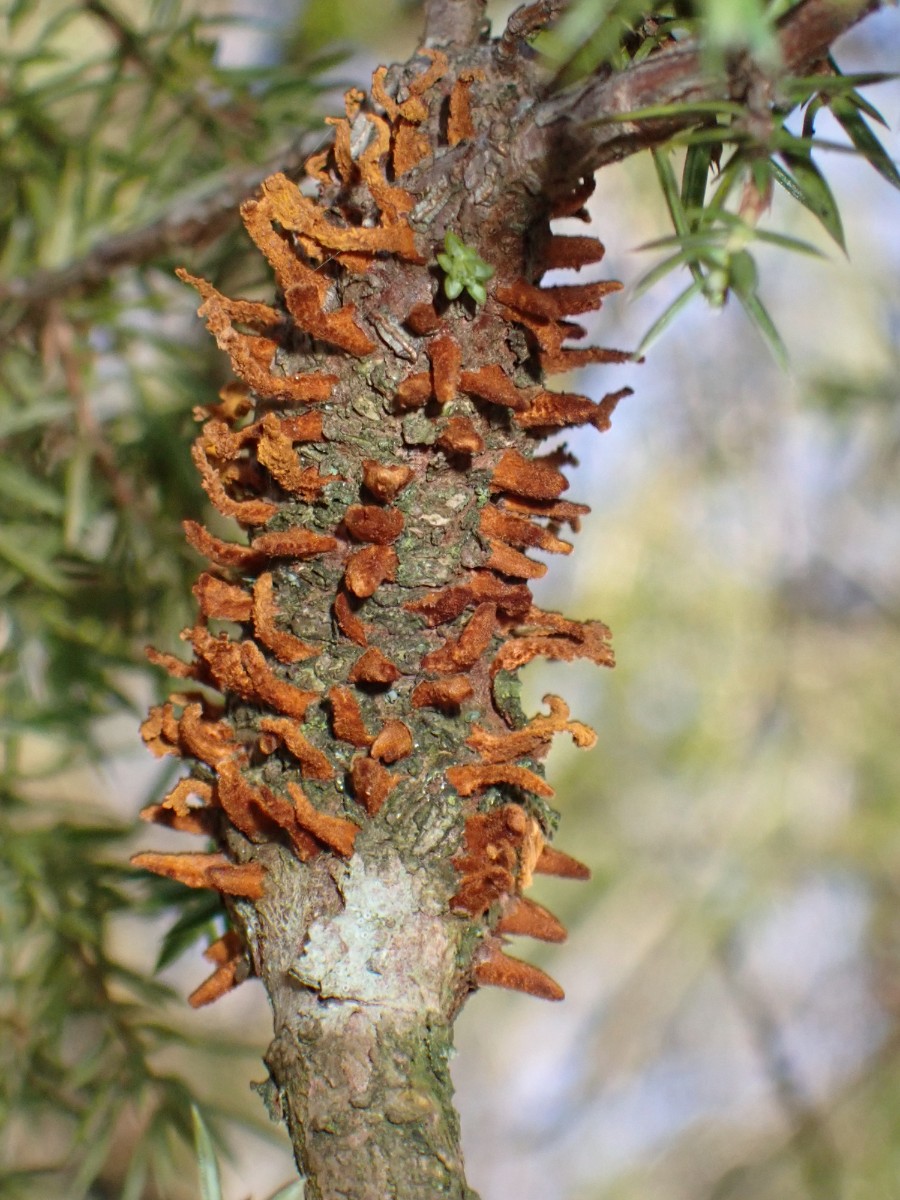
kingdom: Fungi
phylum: Basidiomycota
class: Pucciniomycetes
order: Pucciniales
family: Gymnosporangiaceae
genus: Gymnosporangium
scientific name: Gymnosporangium clavariiforme
